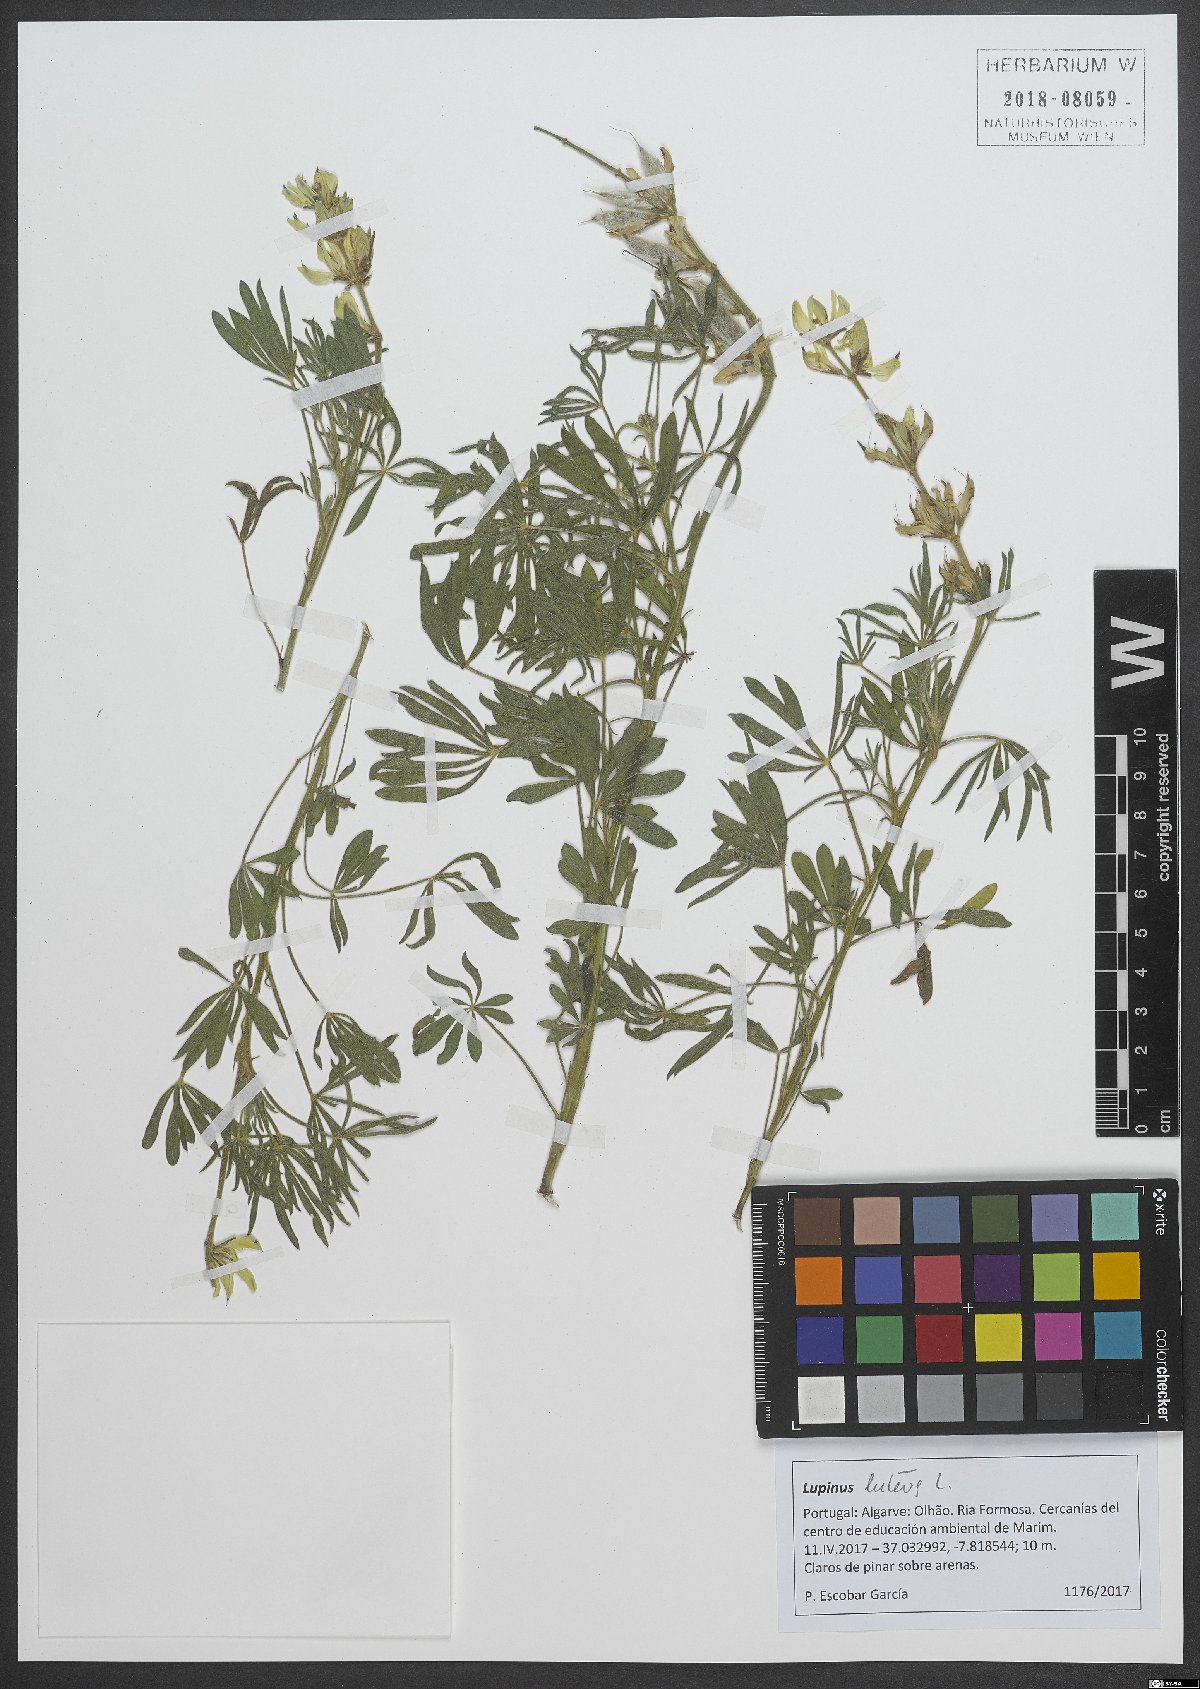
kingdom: Plantae
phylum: Tracheophyta
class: Magnoliopsida
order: Fabales
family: Fabaceae
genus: Lupinus
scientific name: Lupinus luteus
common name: European yellow lupine
